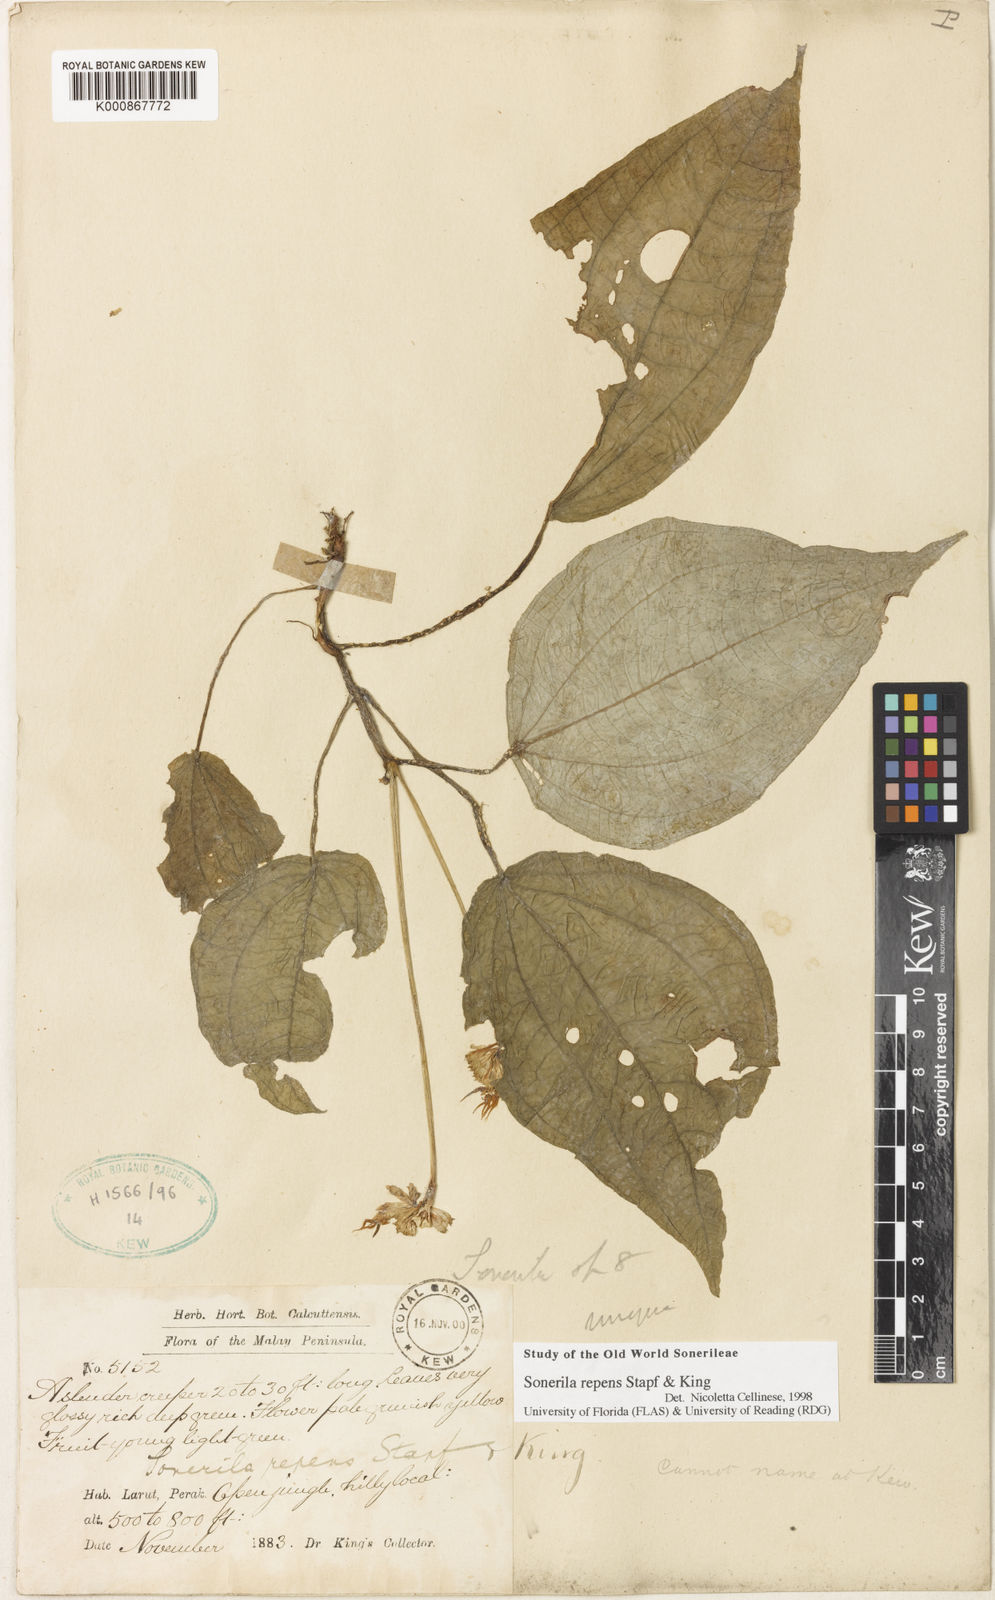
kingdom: Plantae
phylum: Tracheophyta
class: Magnoliopsida
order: Myrtales
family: Melastomataceae
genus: Sonerila
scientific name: Sonerila repens
